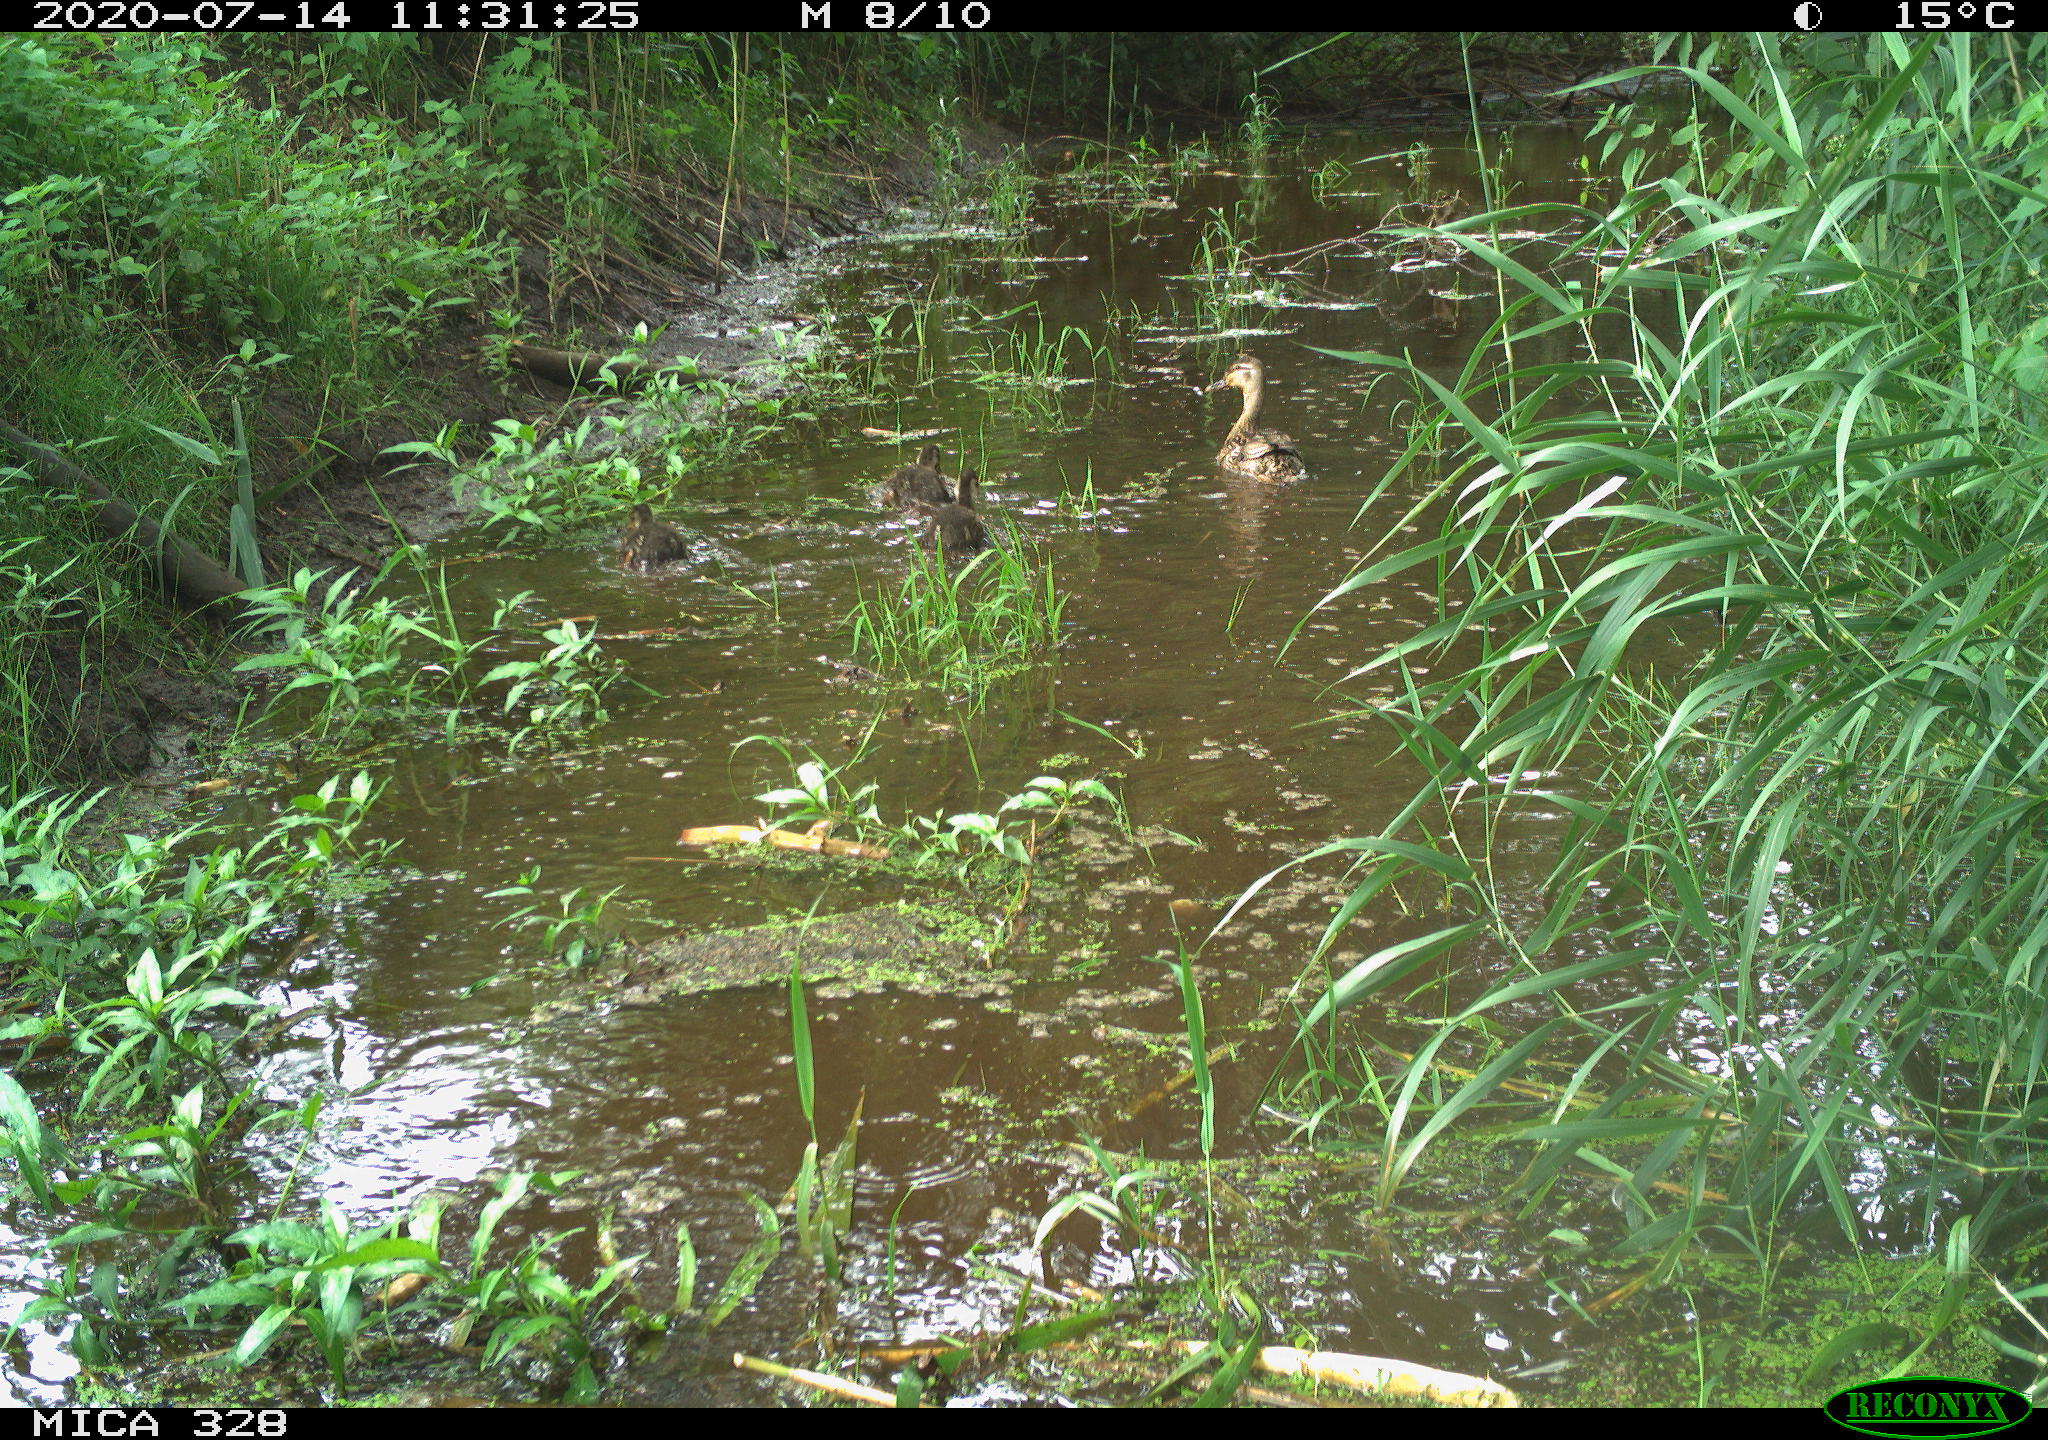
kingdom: Animalia
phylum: Chordata
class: Aves
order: Anseriformes
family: Anatidae
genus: Anas
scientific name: Anas platyrhynchos
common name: Mallard
